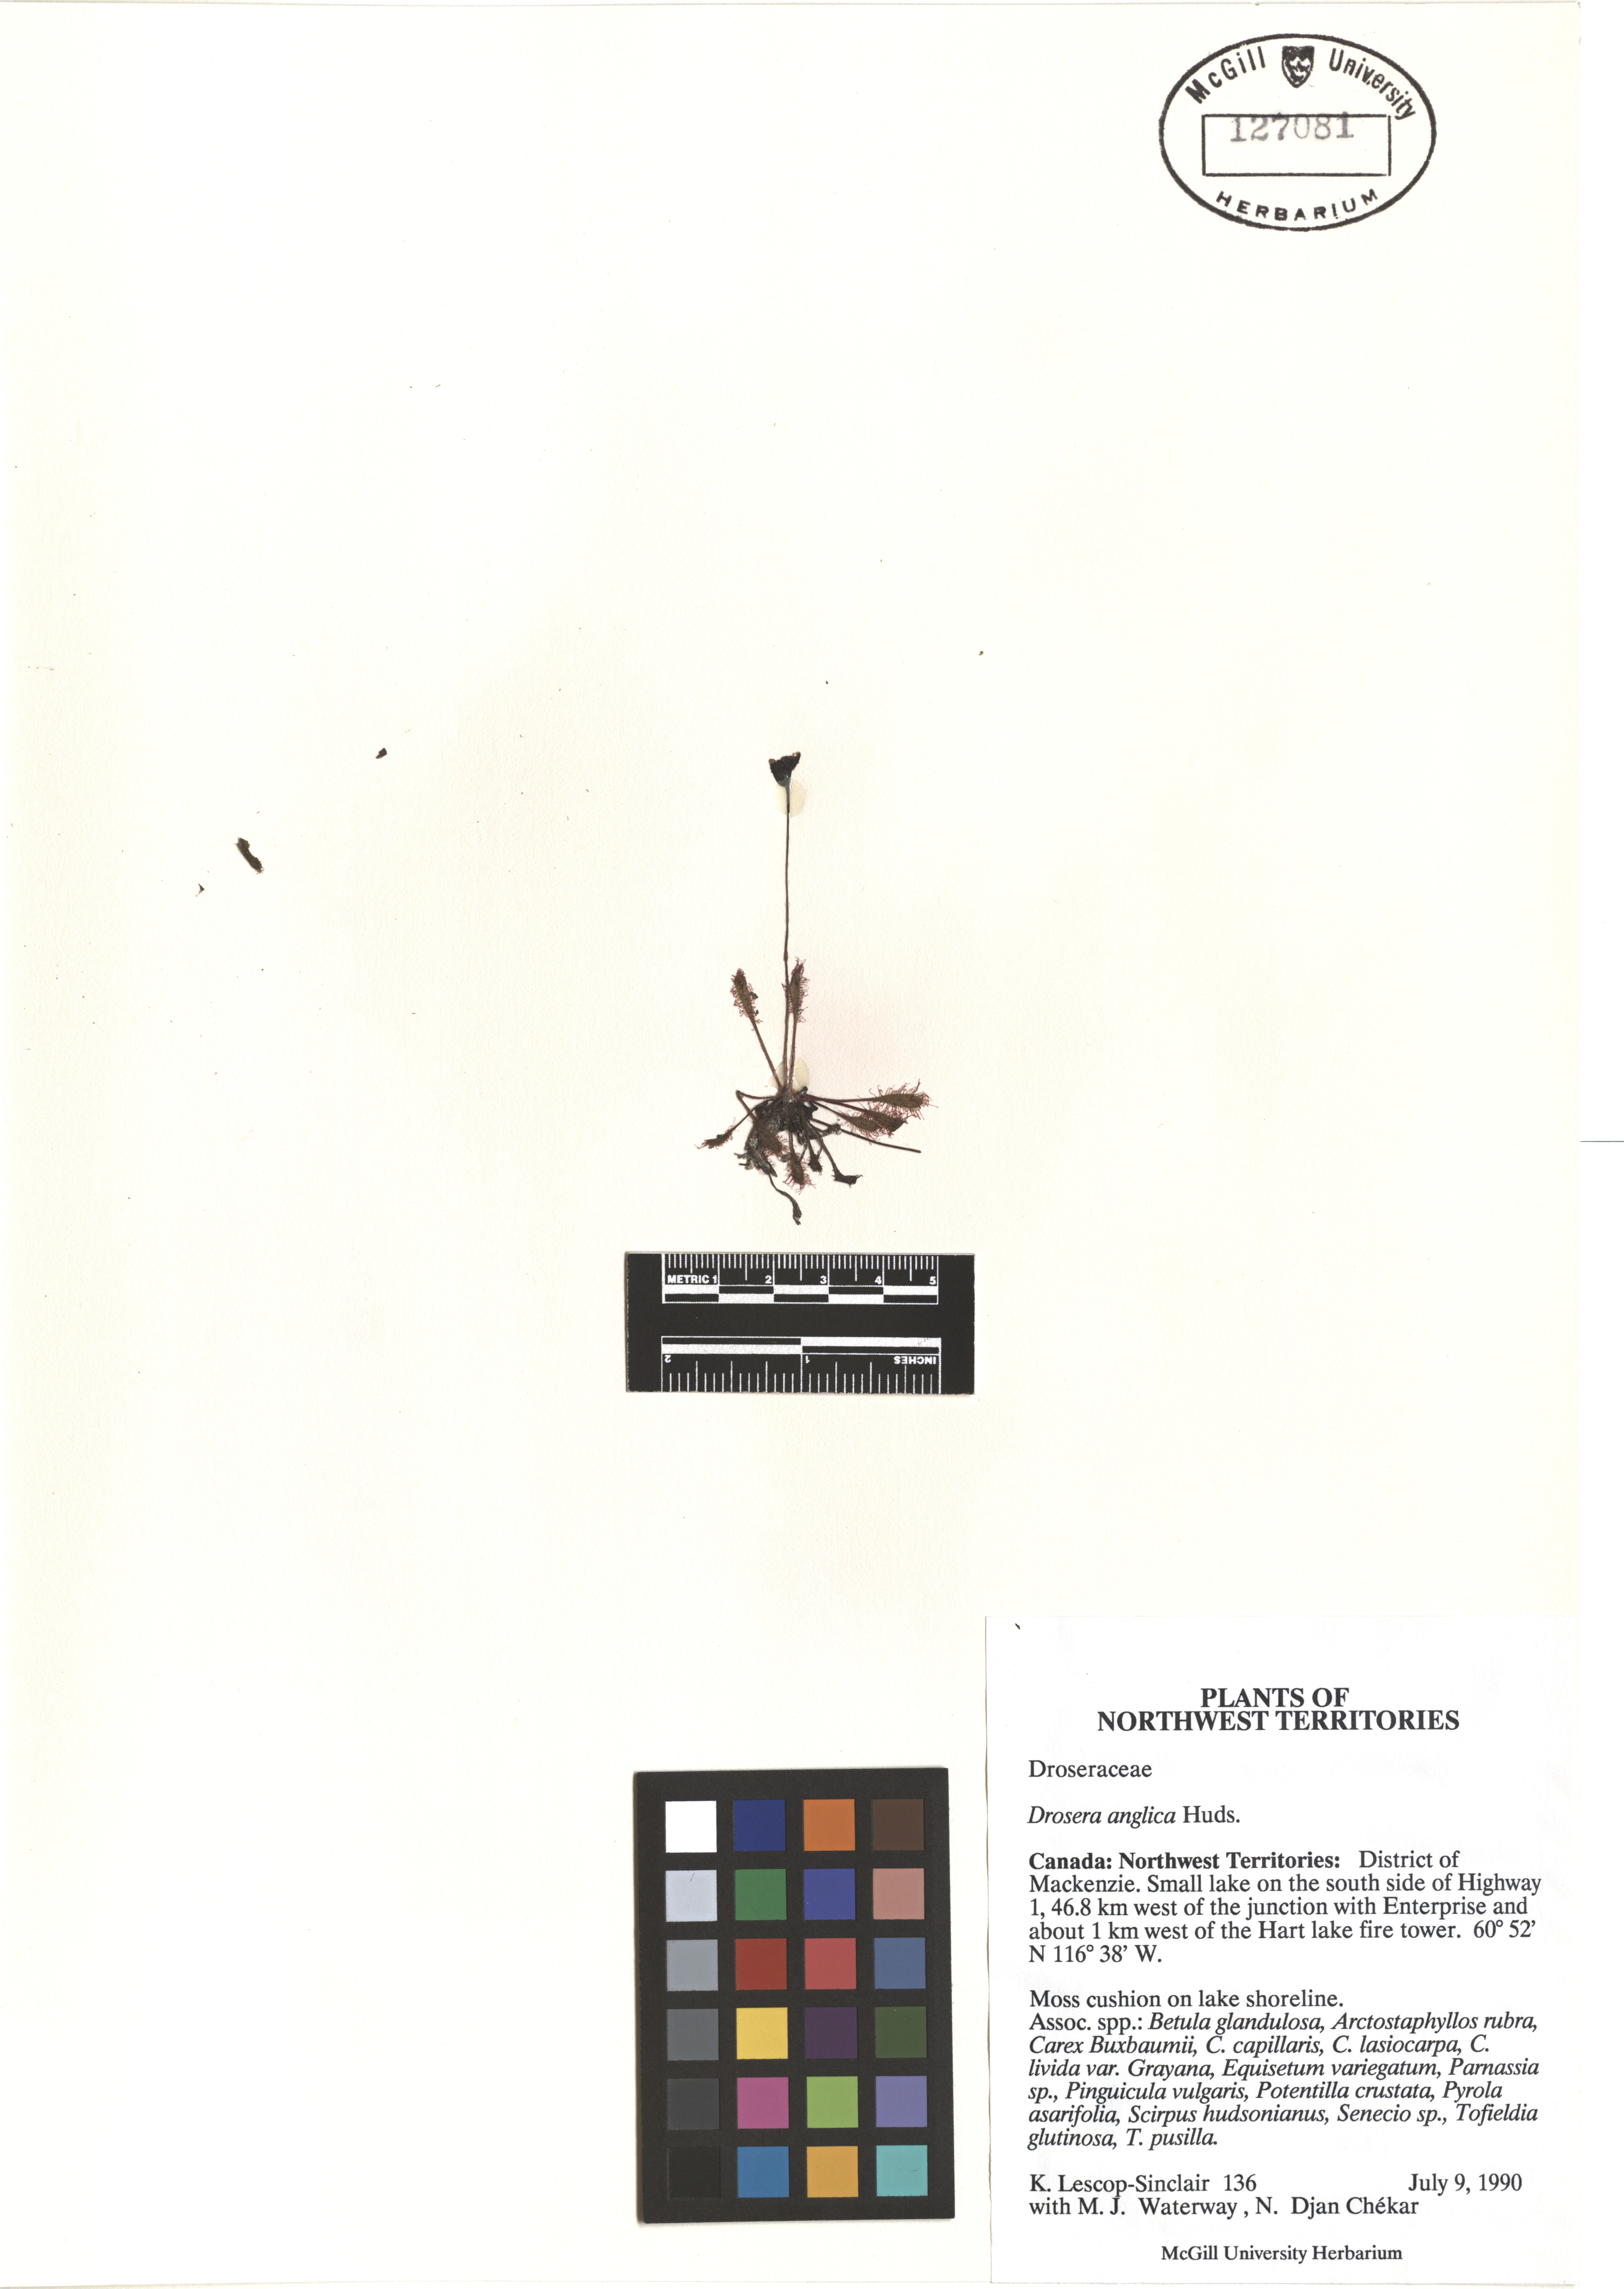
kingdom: Plantae
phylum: Tracheophyta
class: Magnoliopsida
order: Caryophyllales
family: Droseraceae
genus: Drosera
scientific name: Drosera anglica
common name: Great sundew
